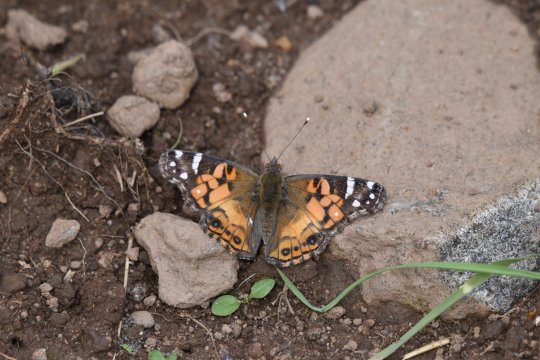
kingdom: Animalia
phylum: Arthropoda
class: Insecta
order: Lepidoptera
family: Nymphalidae
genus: Vanessa
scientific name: Vanessa virginiensis
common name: American Lady
